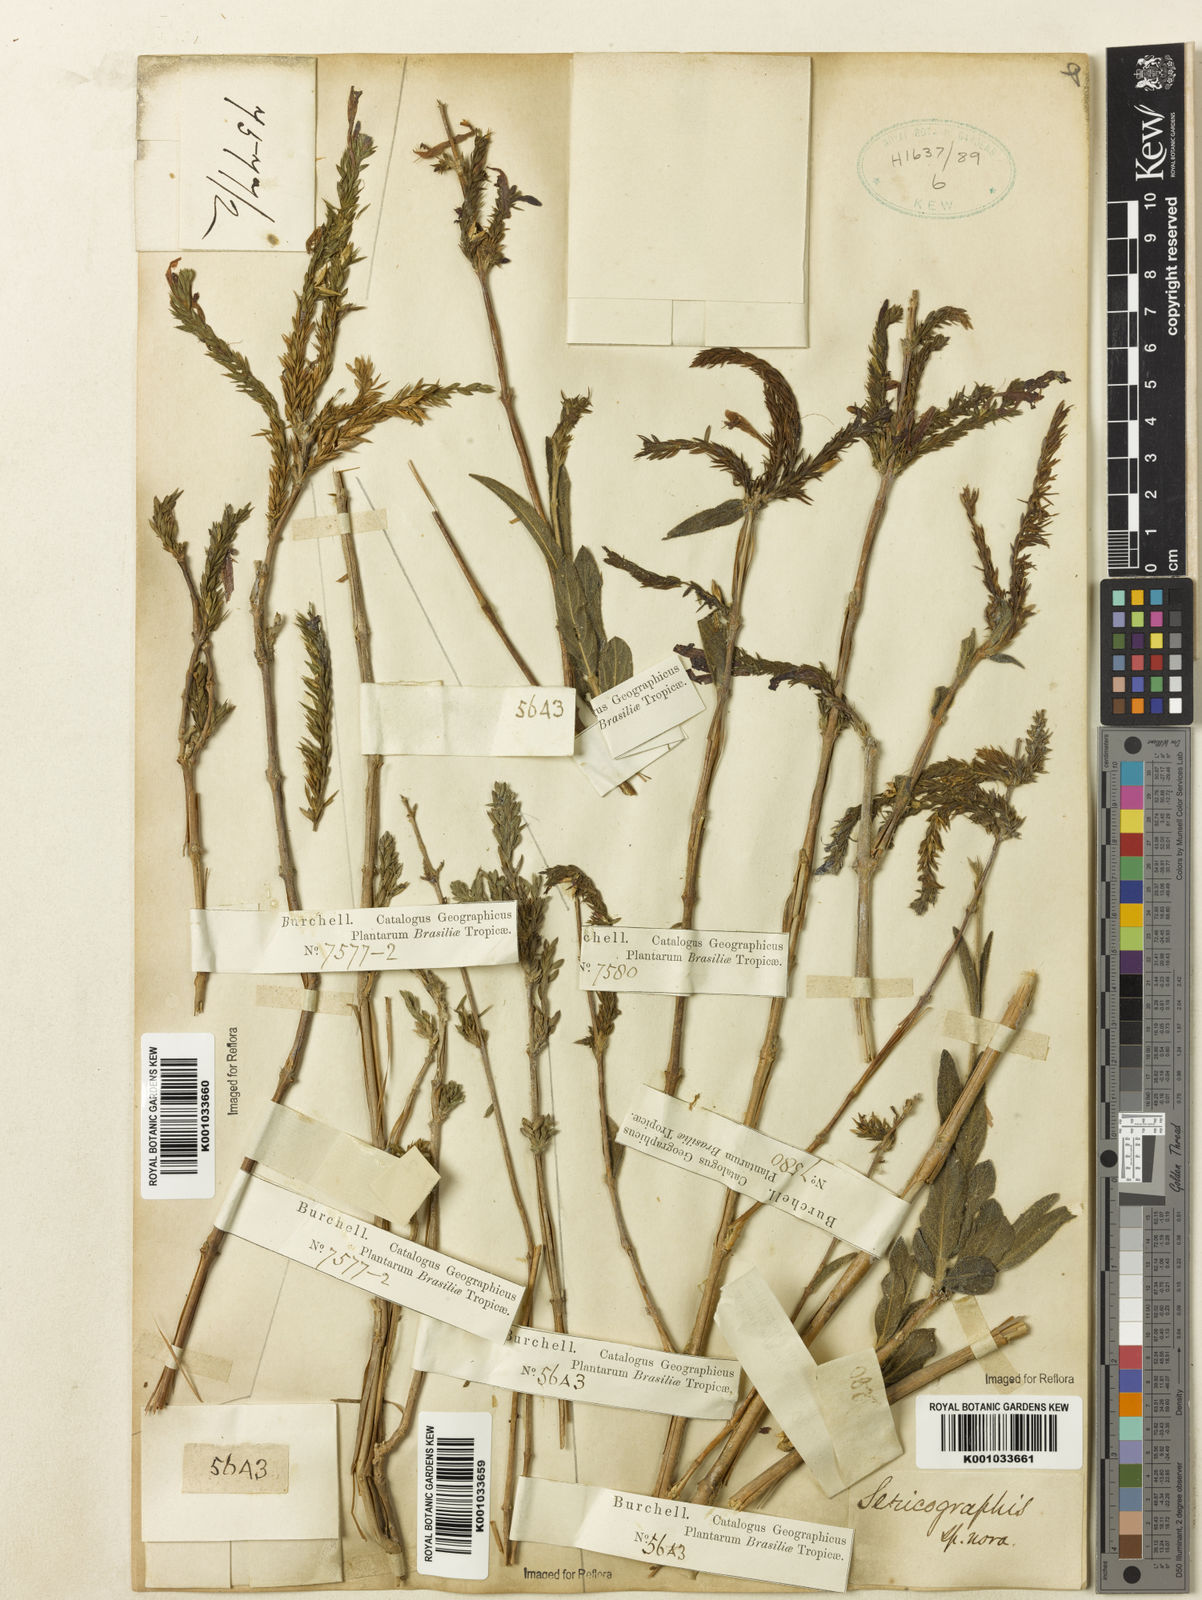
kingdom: Plantae
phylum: Tracheophyta
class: Magnoliopsida
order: Lamiales
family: Acanthaceae
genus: Justicia
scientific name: Justicia
